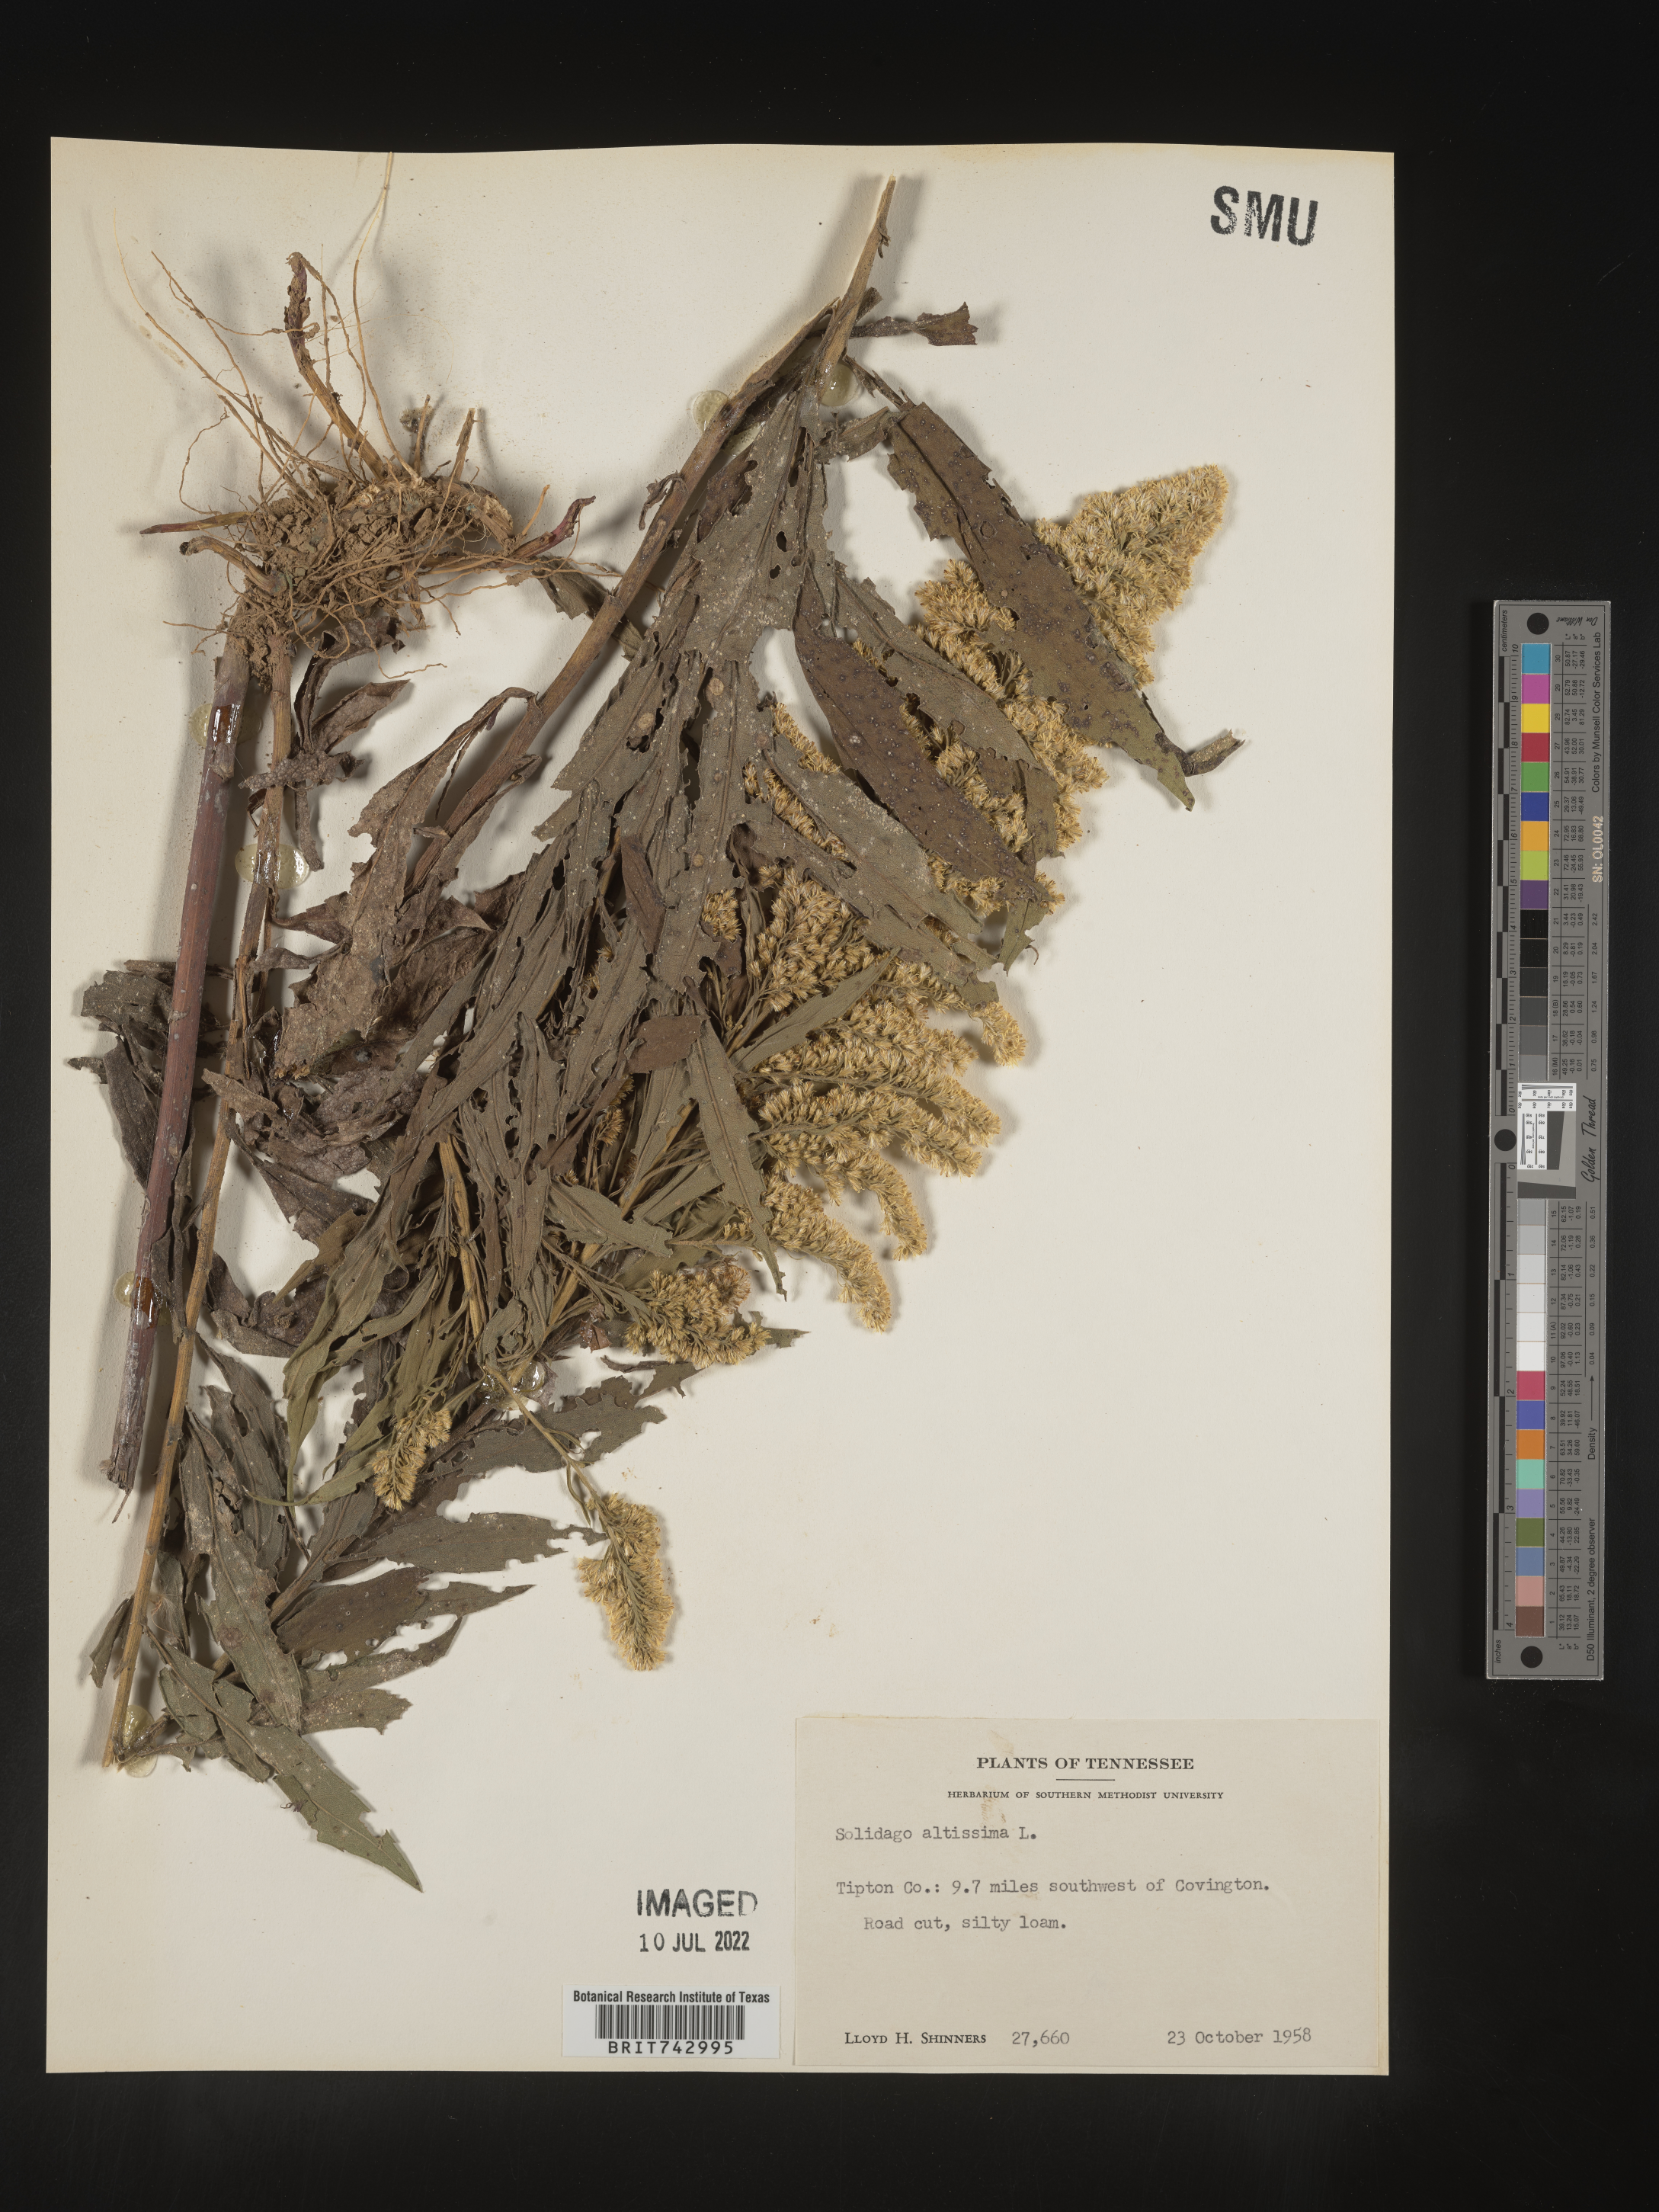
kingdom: Plantae
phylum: Tracheophyta
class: Magnoliopsida
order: Asterales
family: Asteraceae
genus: Solidago
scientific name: Solidago altissima
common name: Late goldenrod
